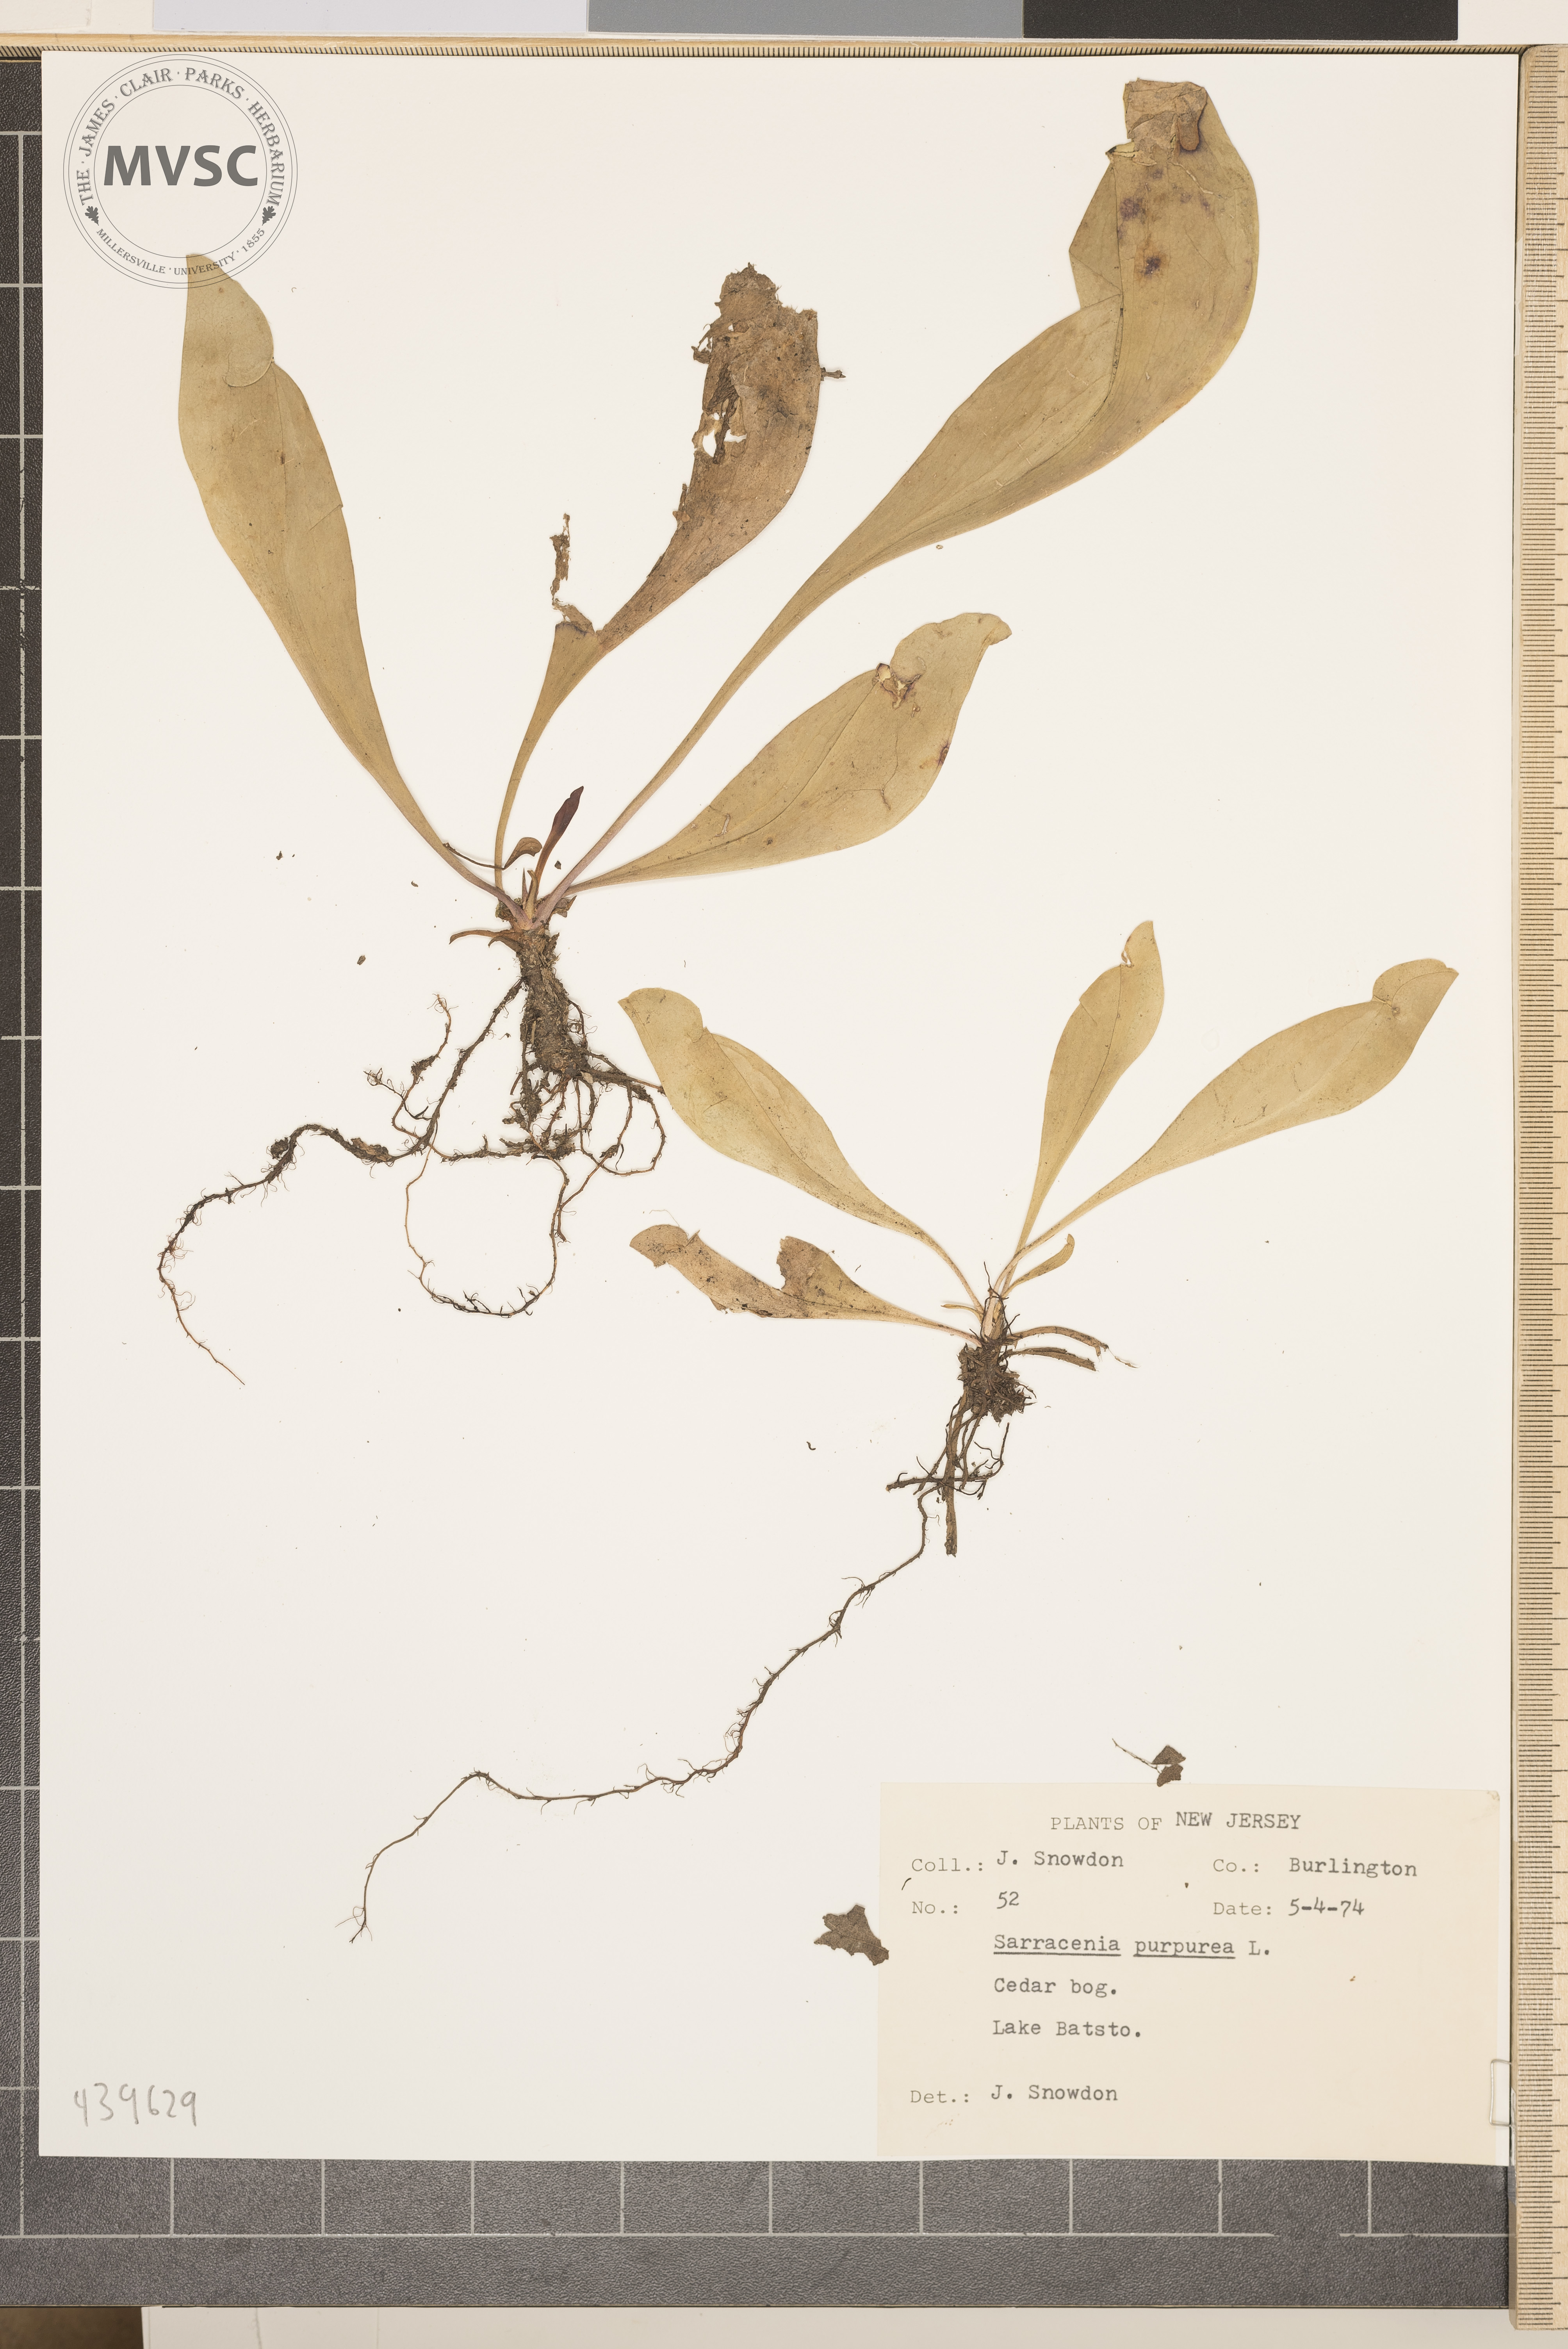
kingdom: Plantae
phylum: Tracheophyta
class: Magnoliopsida
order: Ericales
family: Sarraceniaceae
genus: Sarracenia
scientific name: Sarracenia purpurea
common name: Pitcherplant
